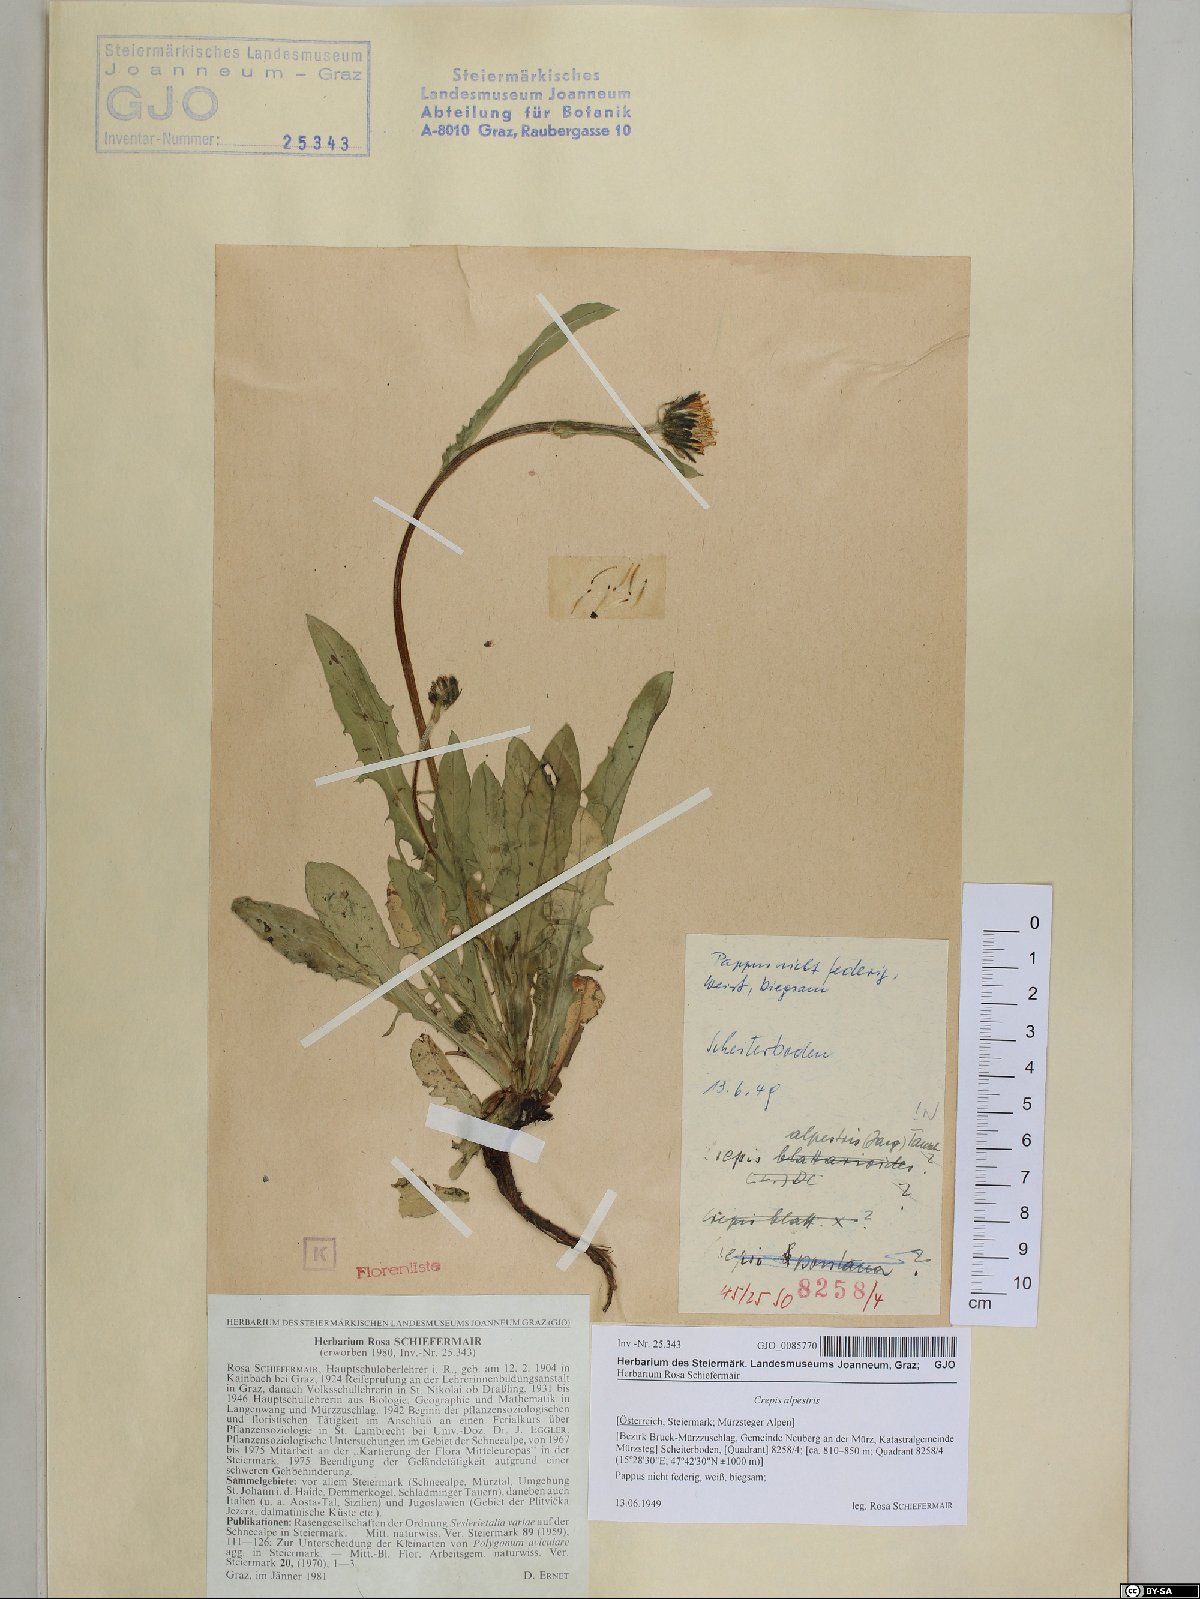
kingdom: Plantae
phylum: Tracheophyta
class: Magnoliopsida
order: Asterales
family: Asteraceae
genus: Crepis
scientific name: Crepis alpestris
